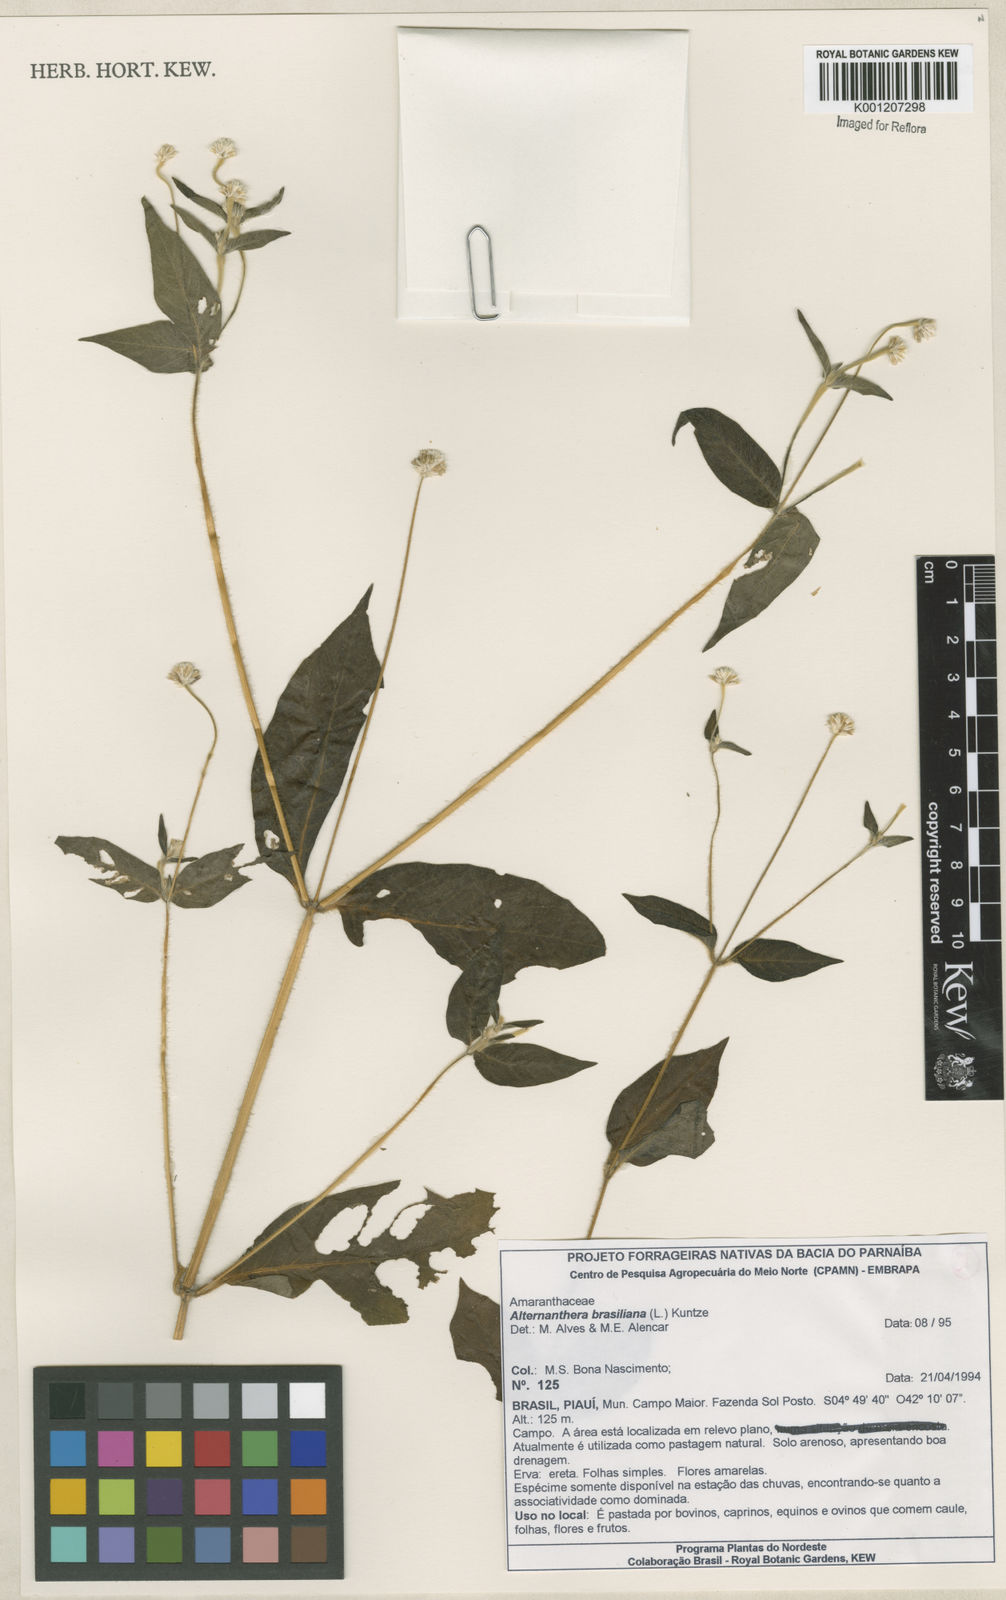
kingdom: Plantae
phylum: Tracheophyta
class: Magnoliopsida
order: Caryophyllales
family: Amaranthaceae
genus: Alternanthera
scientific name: Alternanthera brasiliana
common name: Brazilian joyweed
